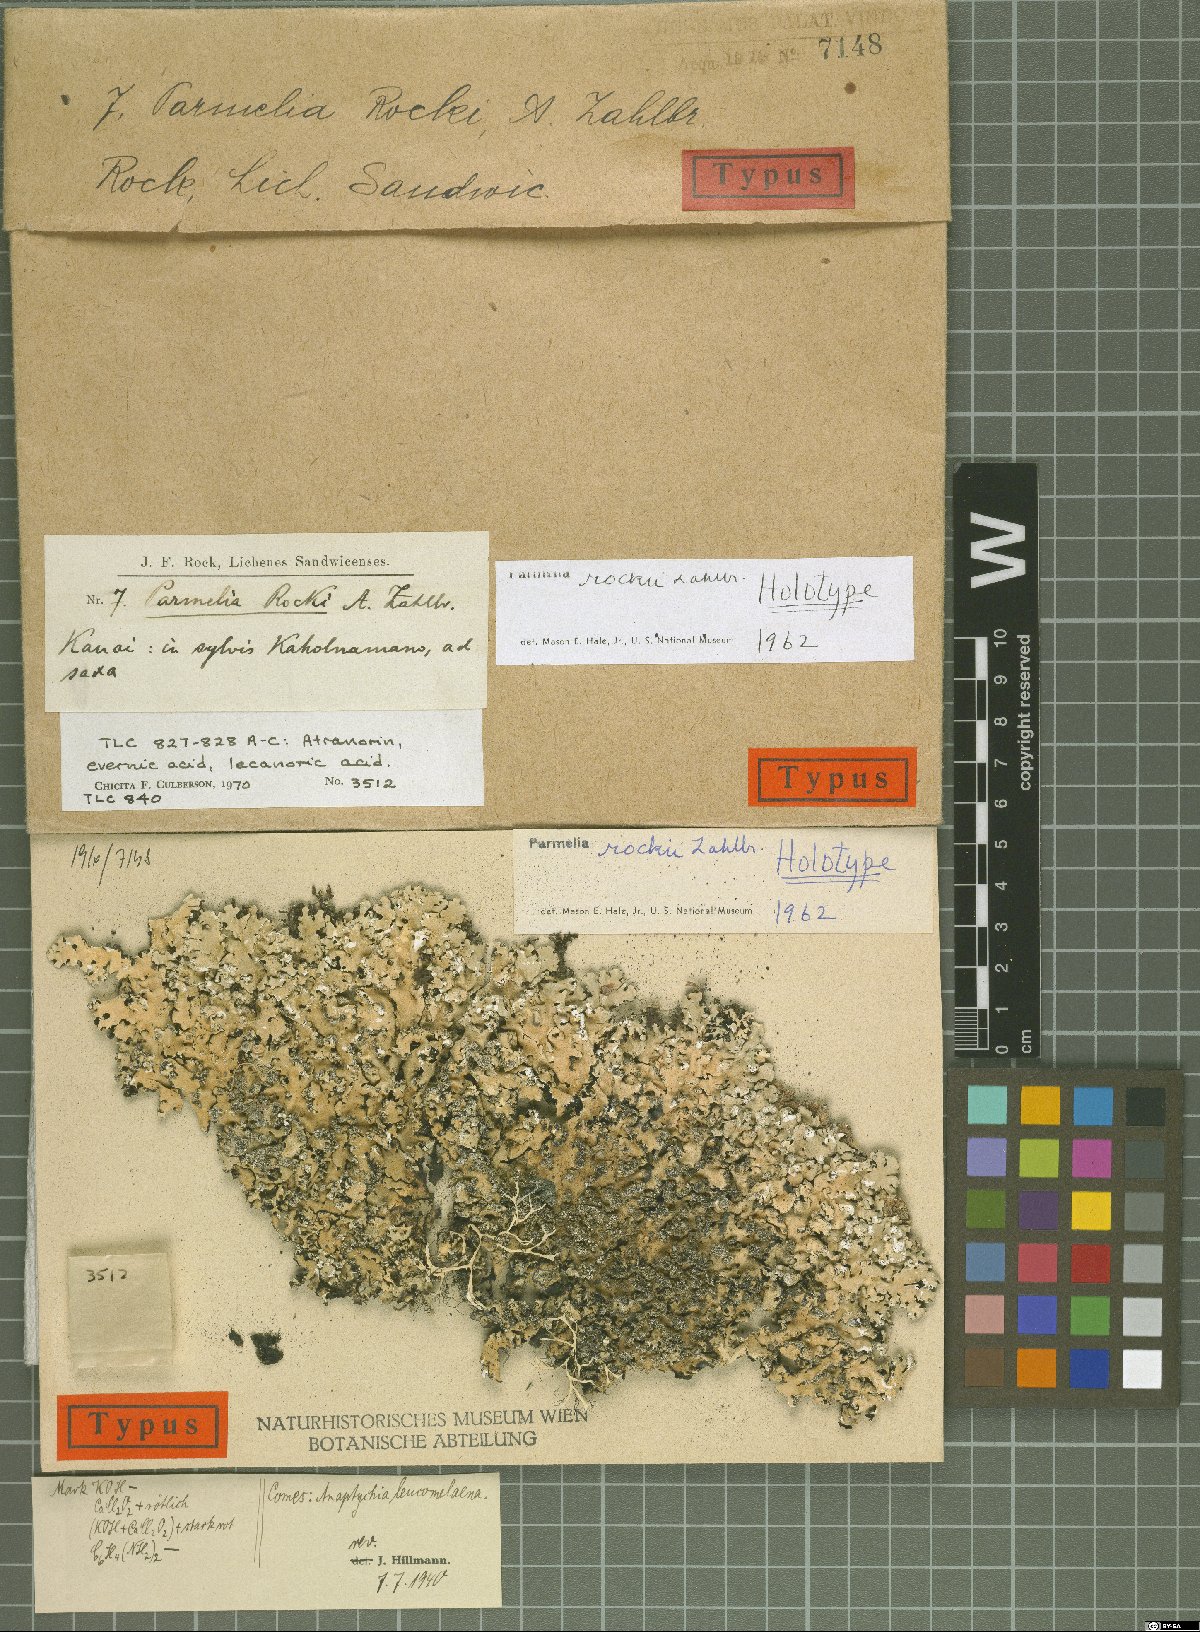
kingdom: Fungi
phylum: Ascomycota
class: Lecanoromycetes
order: Lecanorales
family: Parmeliaceae
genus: Hypotrachyna
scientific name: Hypotrachyna rockii
